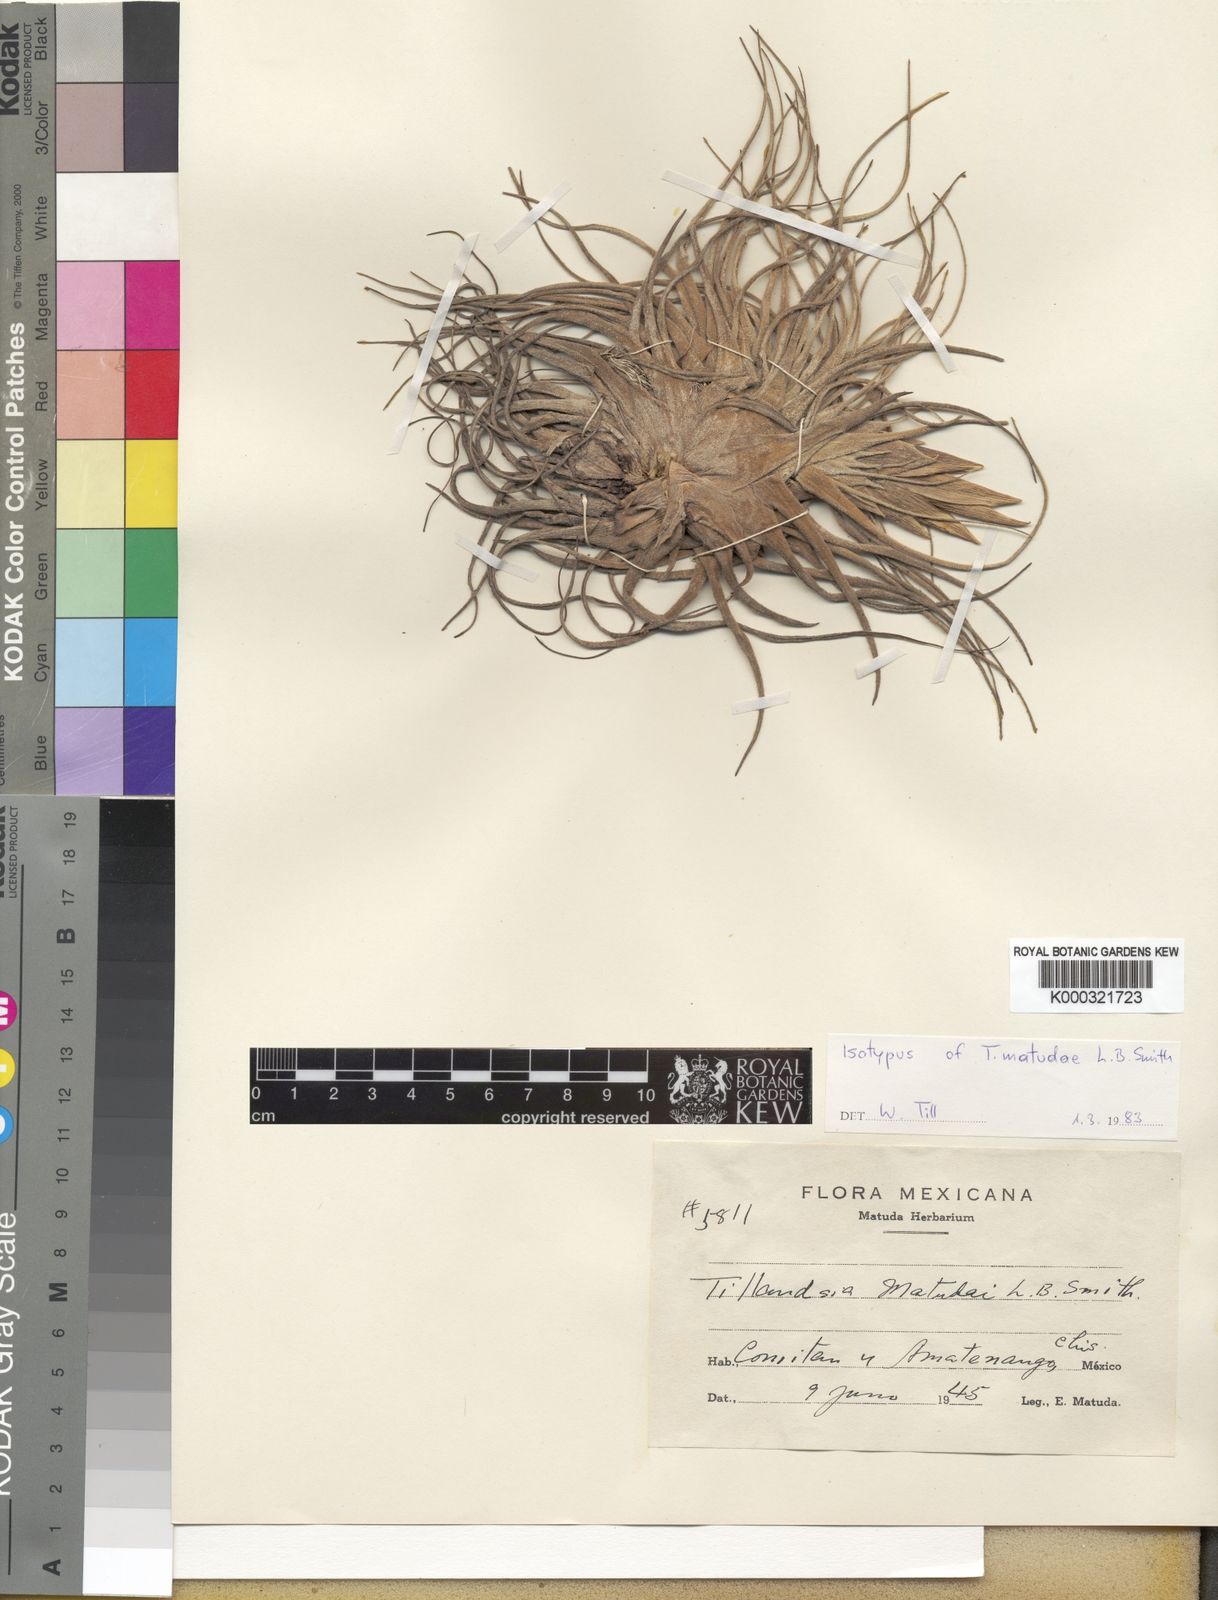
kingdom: Plantae
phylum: Tracheophyta
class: Liliopsida
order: Poales
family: Bromeliaceae
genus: Tillandsia
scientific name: Tillandsia
